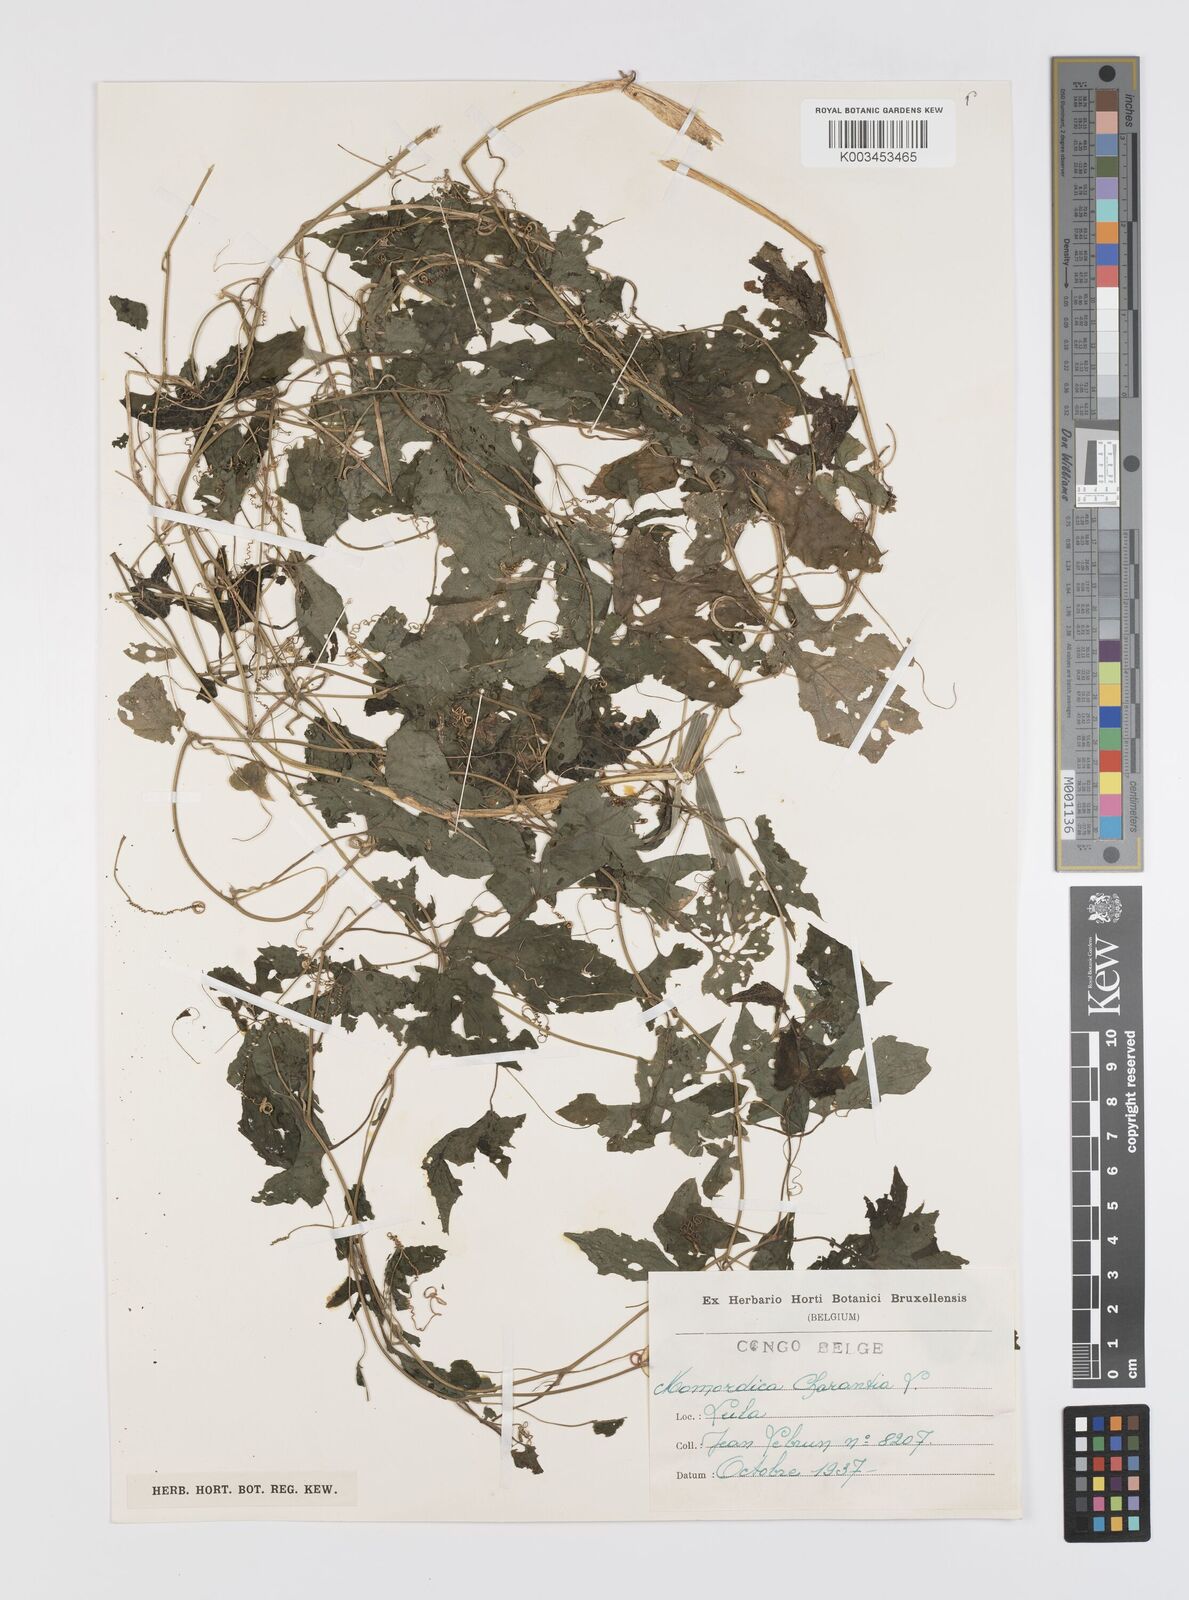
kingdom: Plantae
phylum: Tracheophyta
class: Magnoliopsida
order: Cucurbitales
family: Cucurbitaceae
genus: Momordica
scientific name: Momordica charantia
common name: Balsampear
